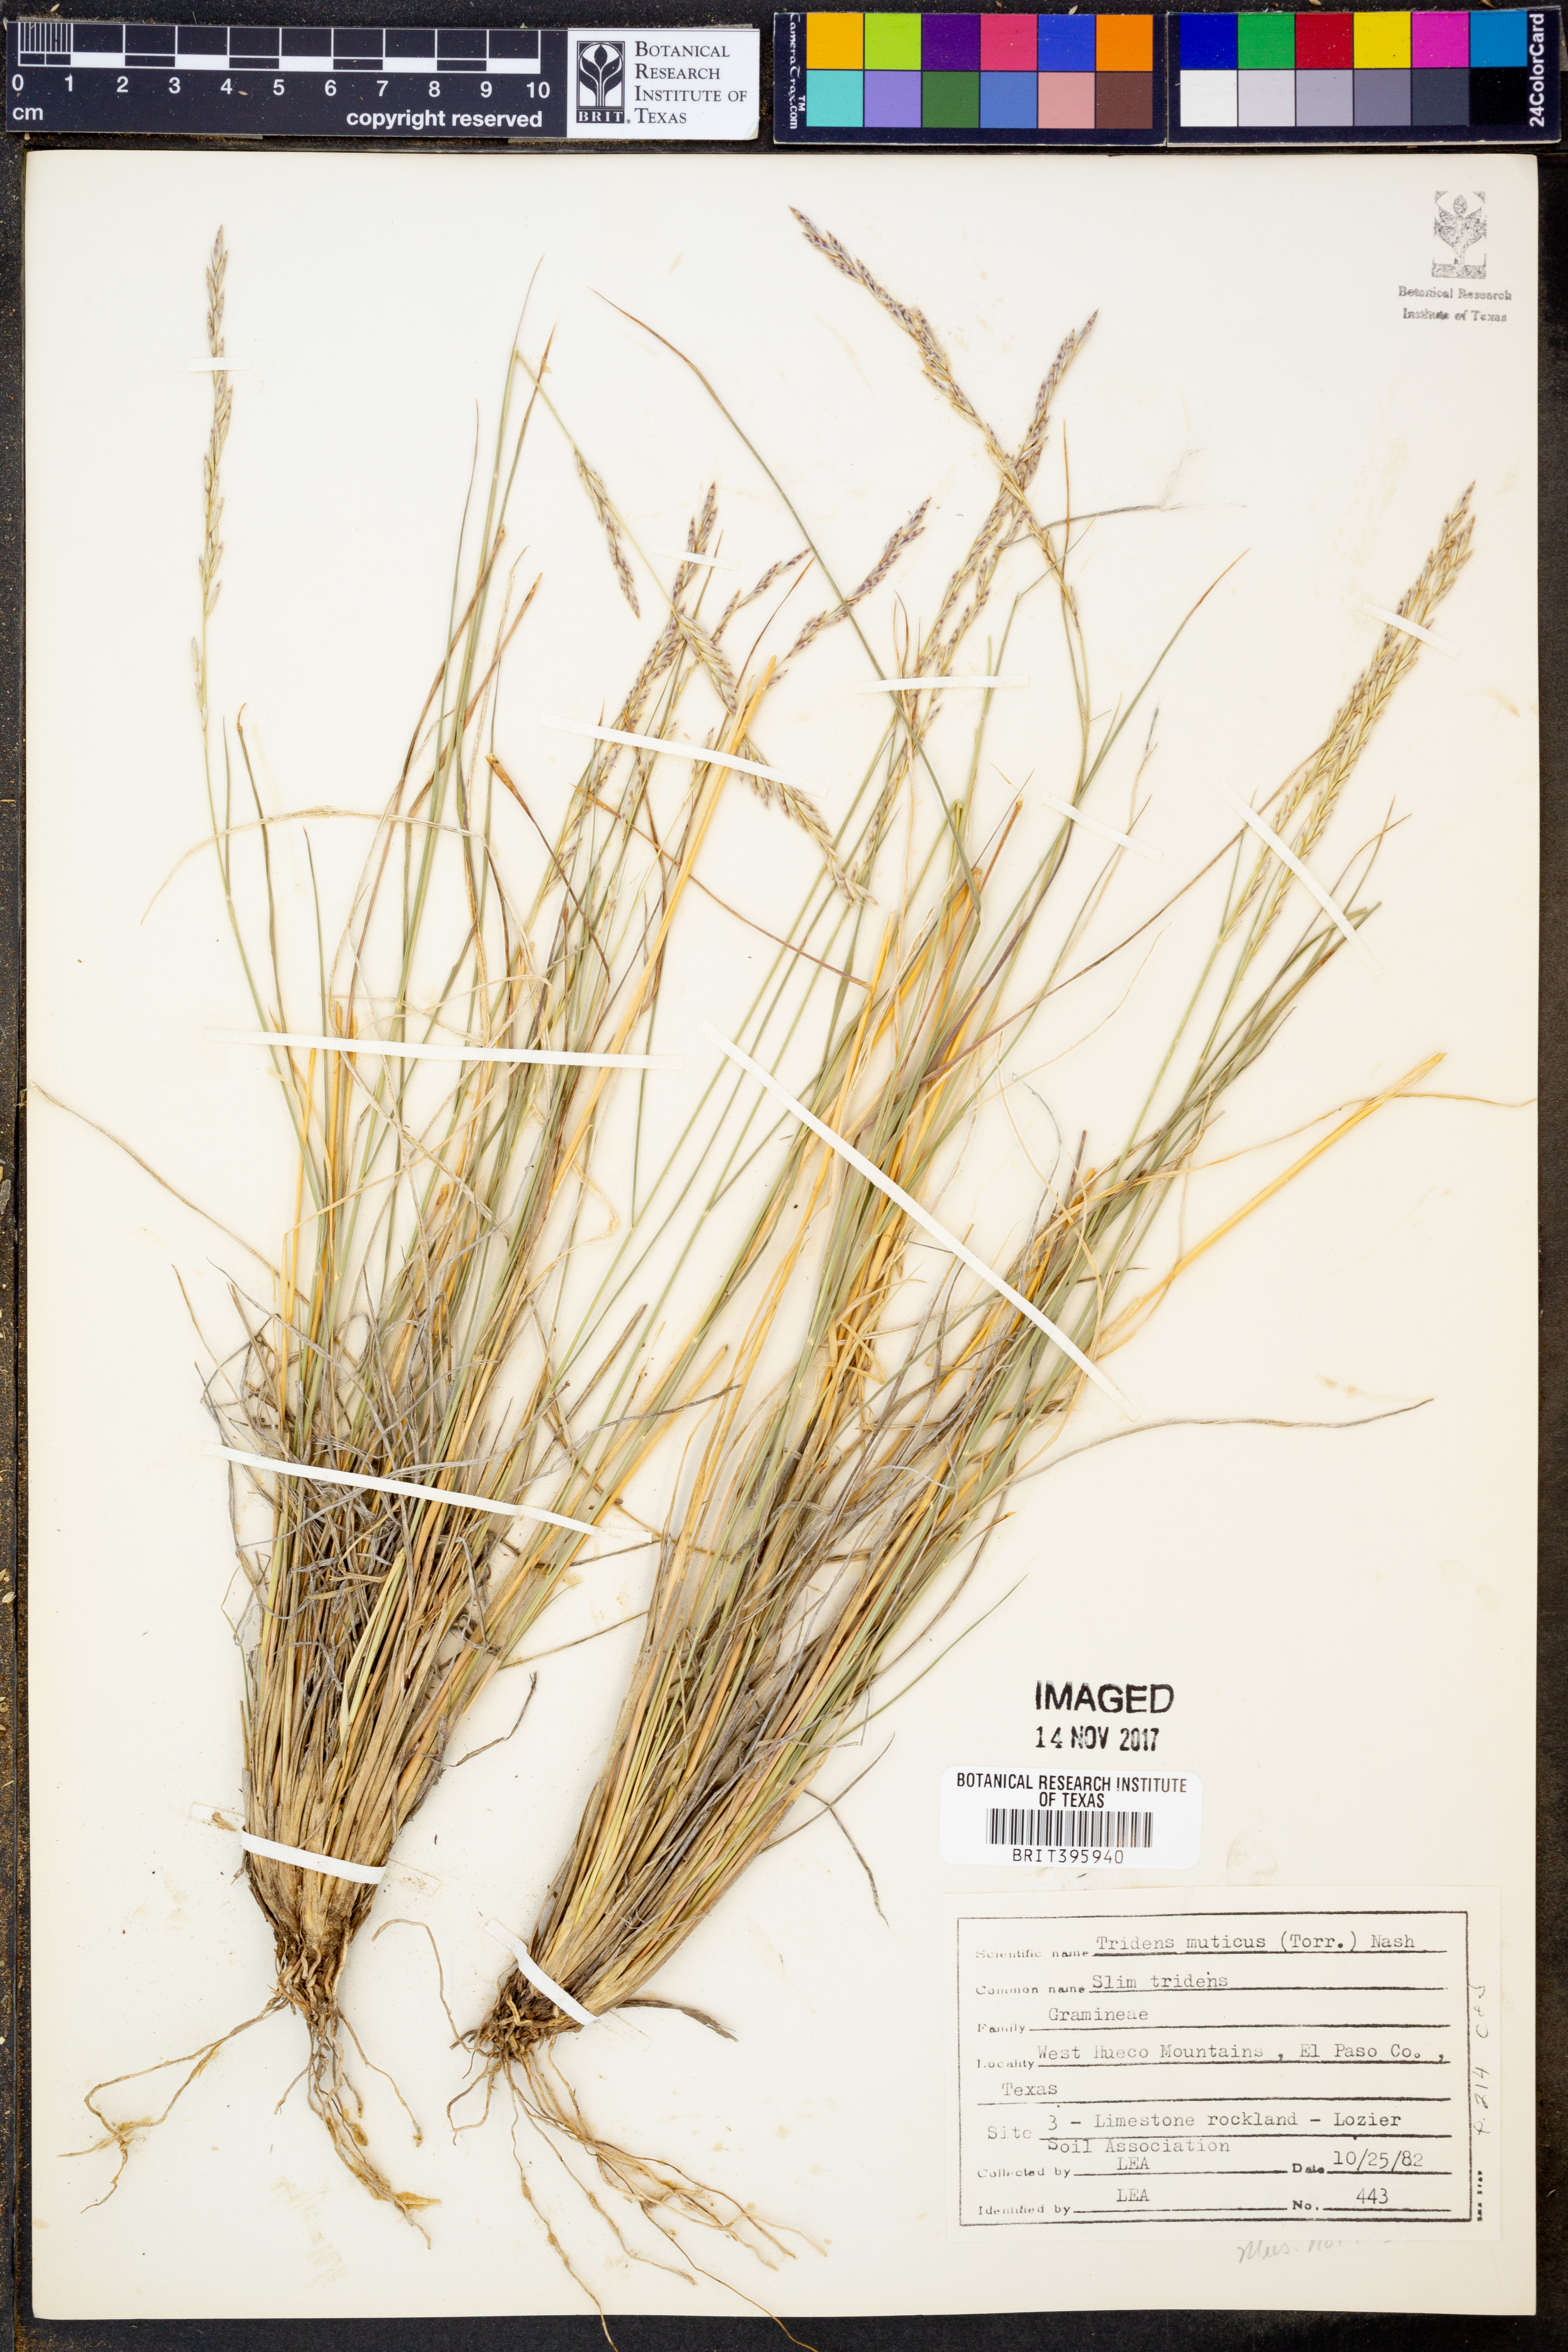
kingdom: Plantae
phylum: Tracheophyta
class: Liliopsida
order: Poales
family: Poaceae
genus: Tridentopsis
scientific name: Tridentopsis mutica
